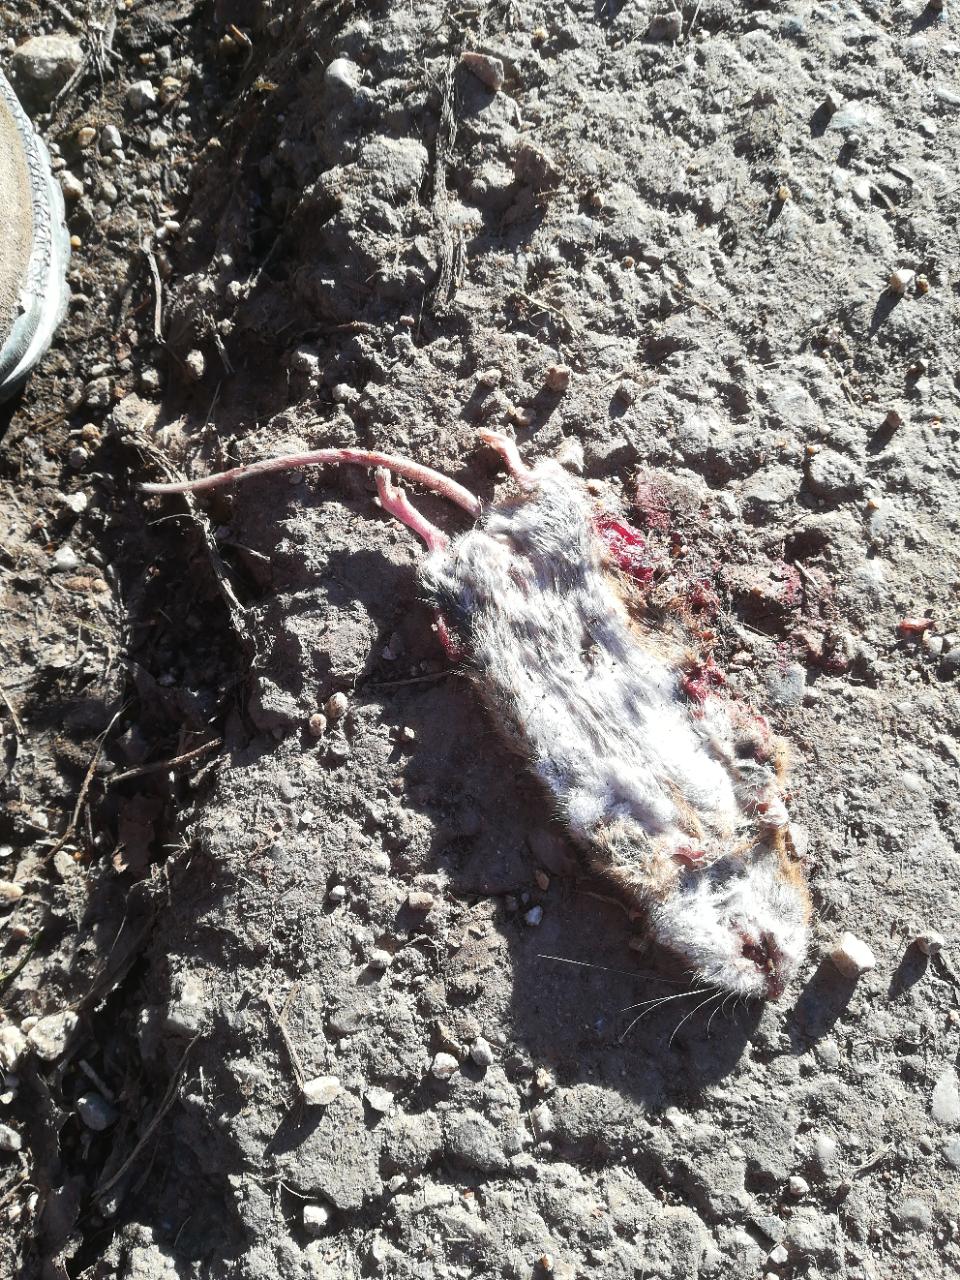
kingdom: Animalia
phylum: Chordata
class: Mammalia
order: Rodentia
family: Muridae
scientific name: Muridae
